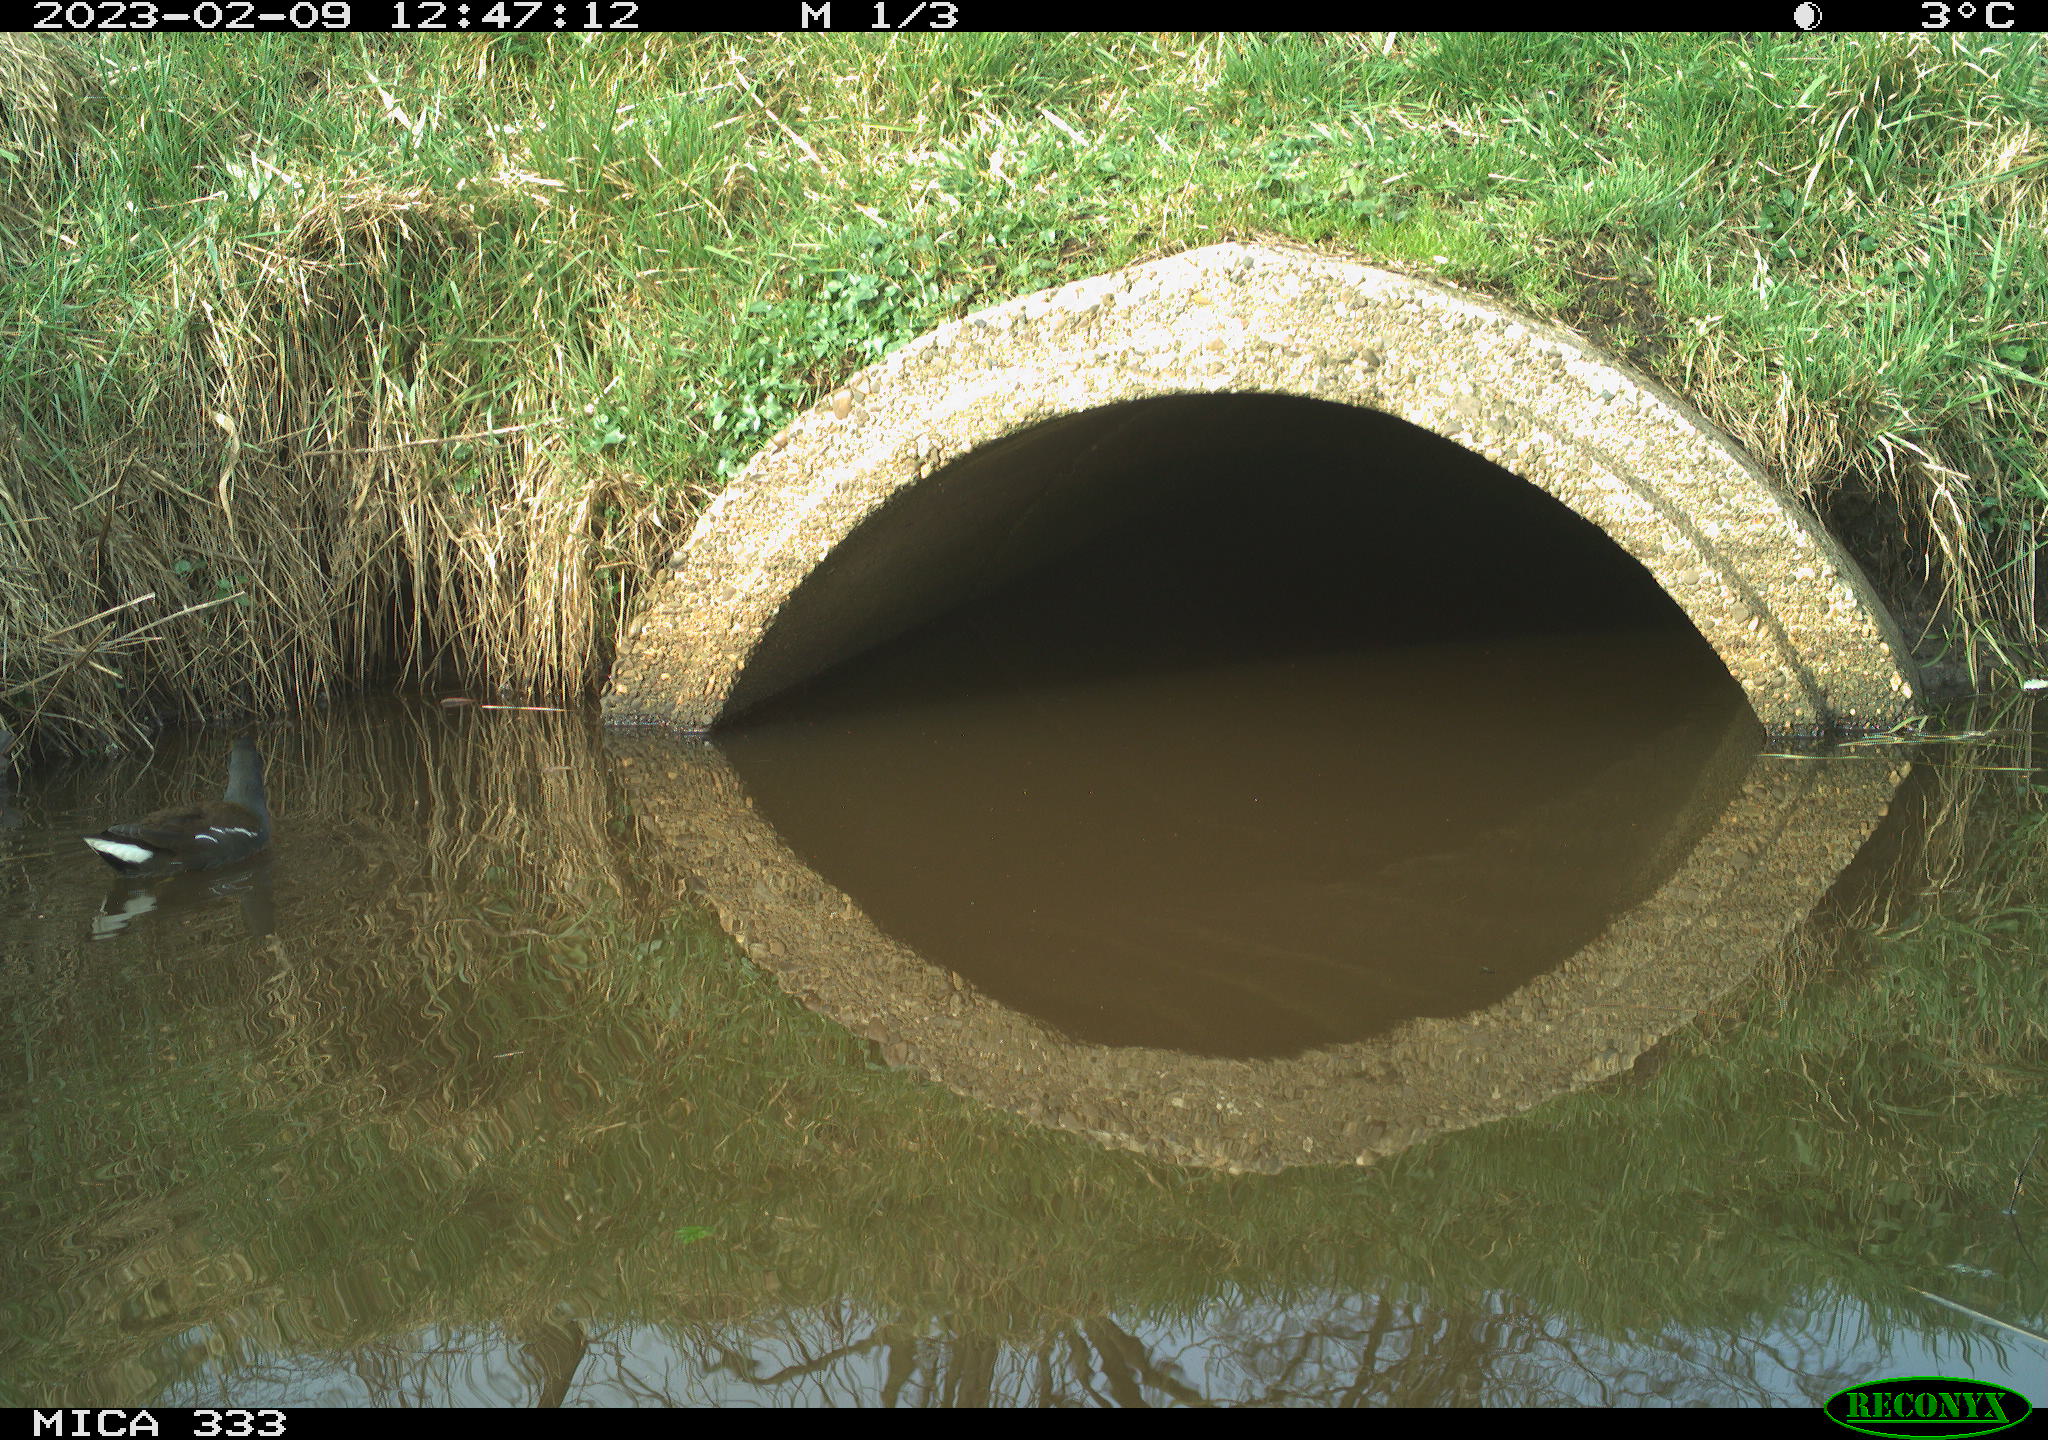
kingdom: Animalia
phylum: Chordata
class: Aves
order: Gruiformes
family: Rallidae
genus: Gallinula
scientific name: Gallinula chloropus
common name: Common moorhen
